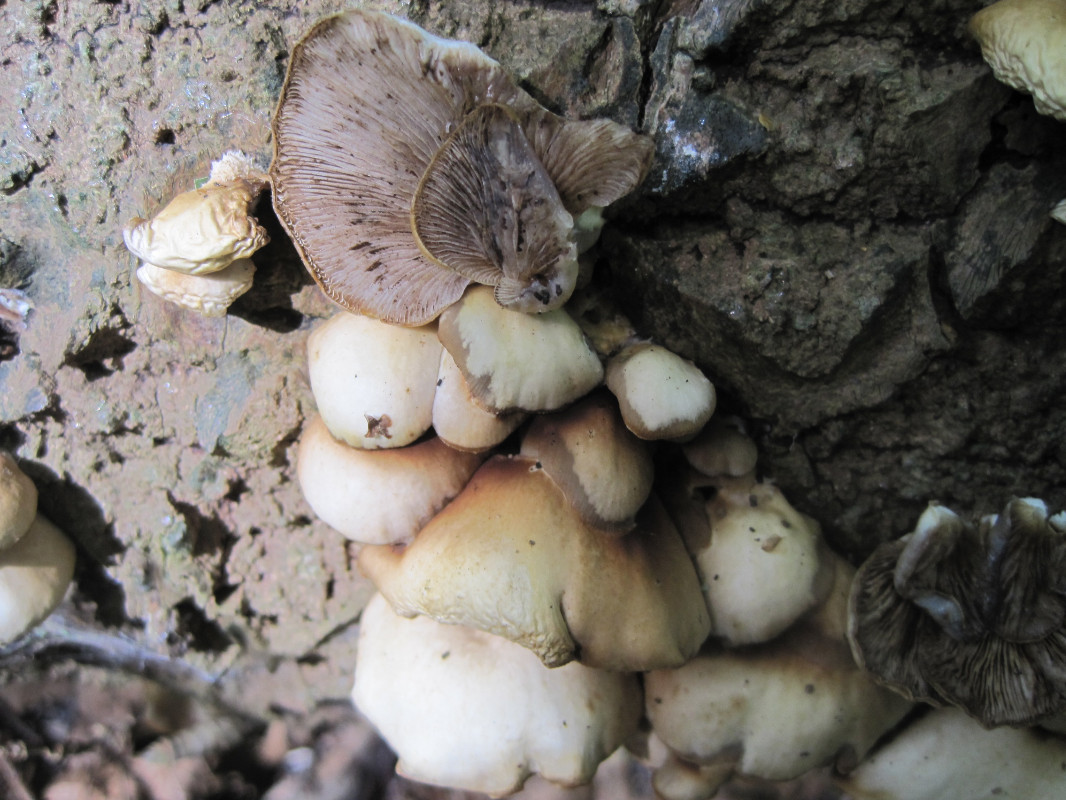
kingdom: Fungi
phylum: Basidiomycota
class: Agaricomycetes
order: Agaricales
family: Crepidotaceae
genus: Crepidotus
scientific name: Crepidotus mollis
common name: blød muslingesvamp
